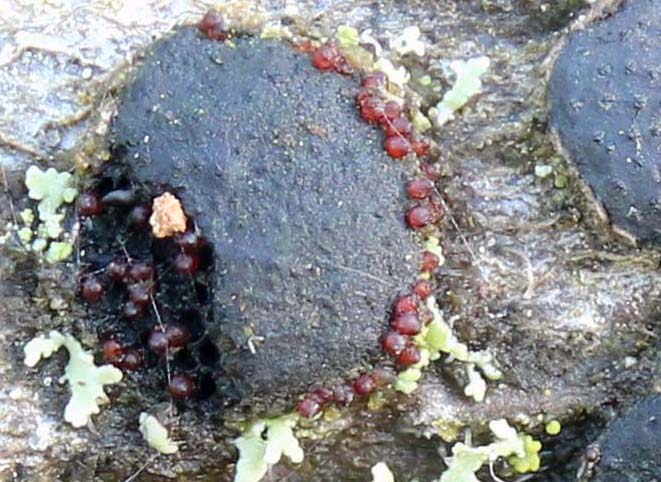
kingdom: Fungi
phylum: Ascomycota
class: Sordariomycetes
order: Hypocreales
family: Nectriaceae
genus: Dialonectria
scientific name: Dialonectria diatrypicola
